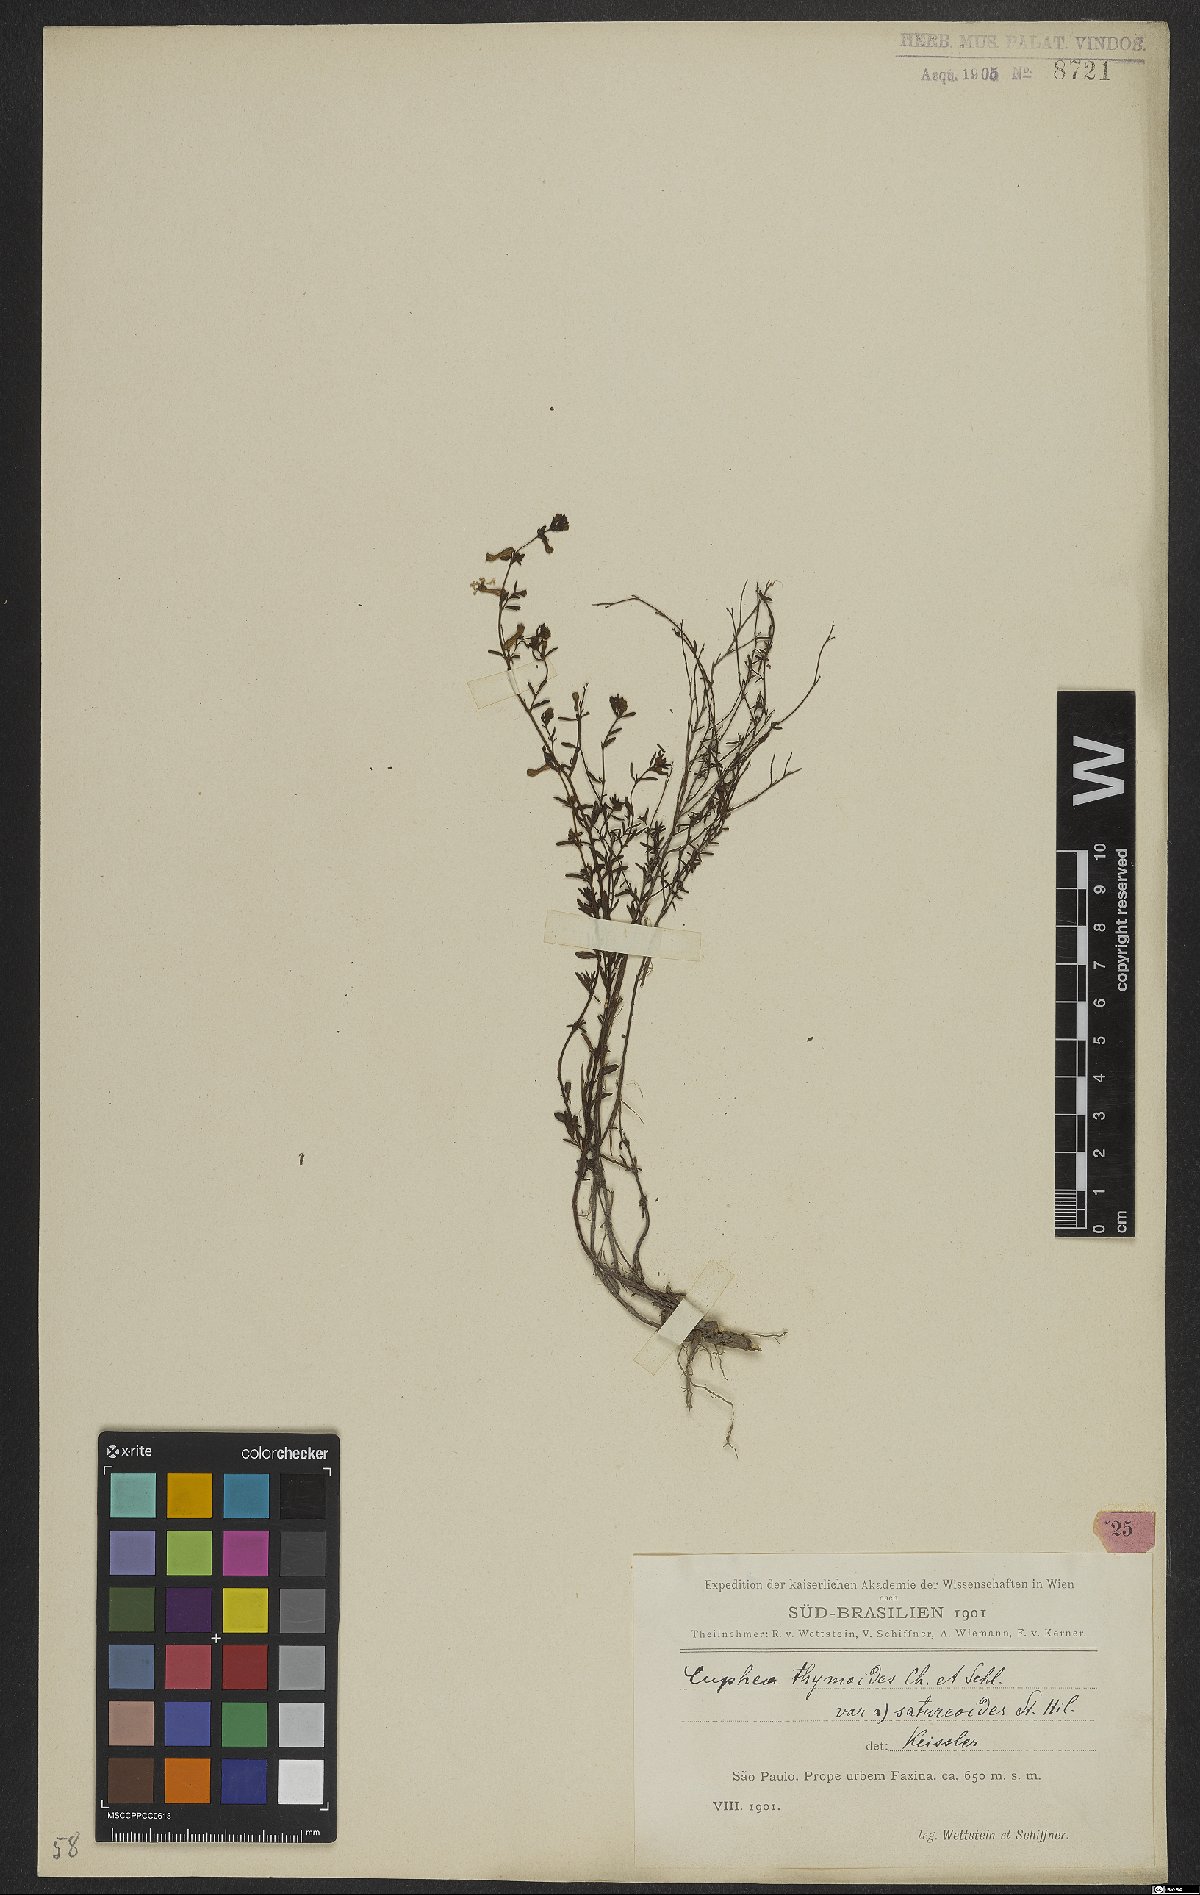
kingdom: Plantae
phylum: Tracheophyta
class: Magnoliopsida
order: Myrtales
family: Lythraceae
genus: Cuphea
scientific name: Cuphea thymoides
